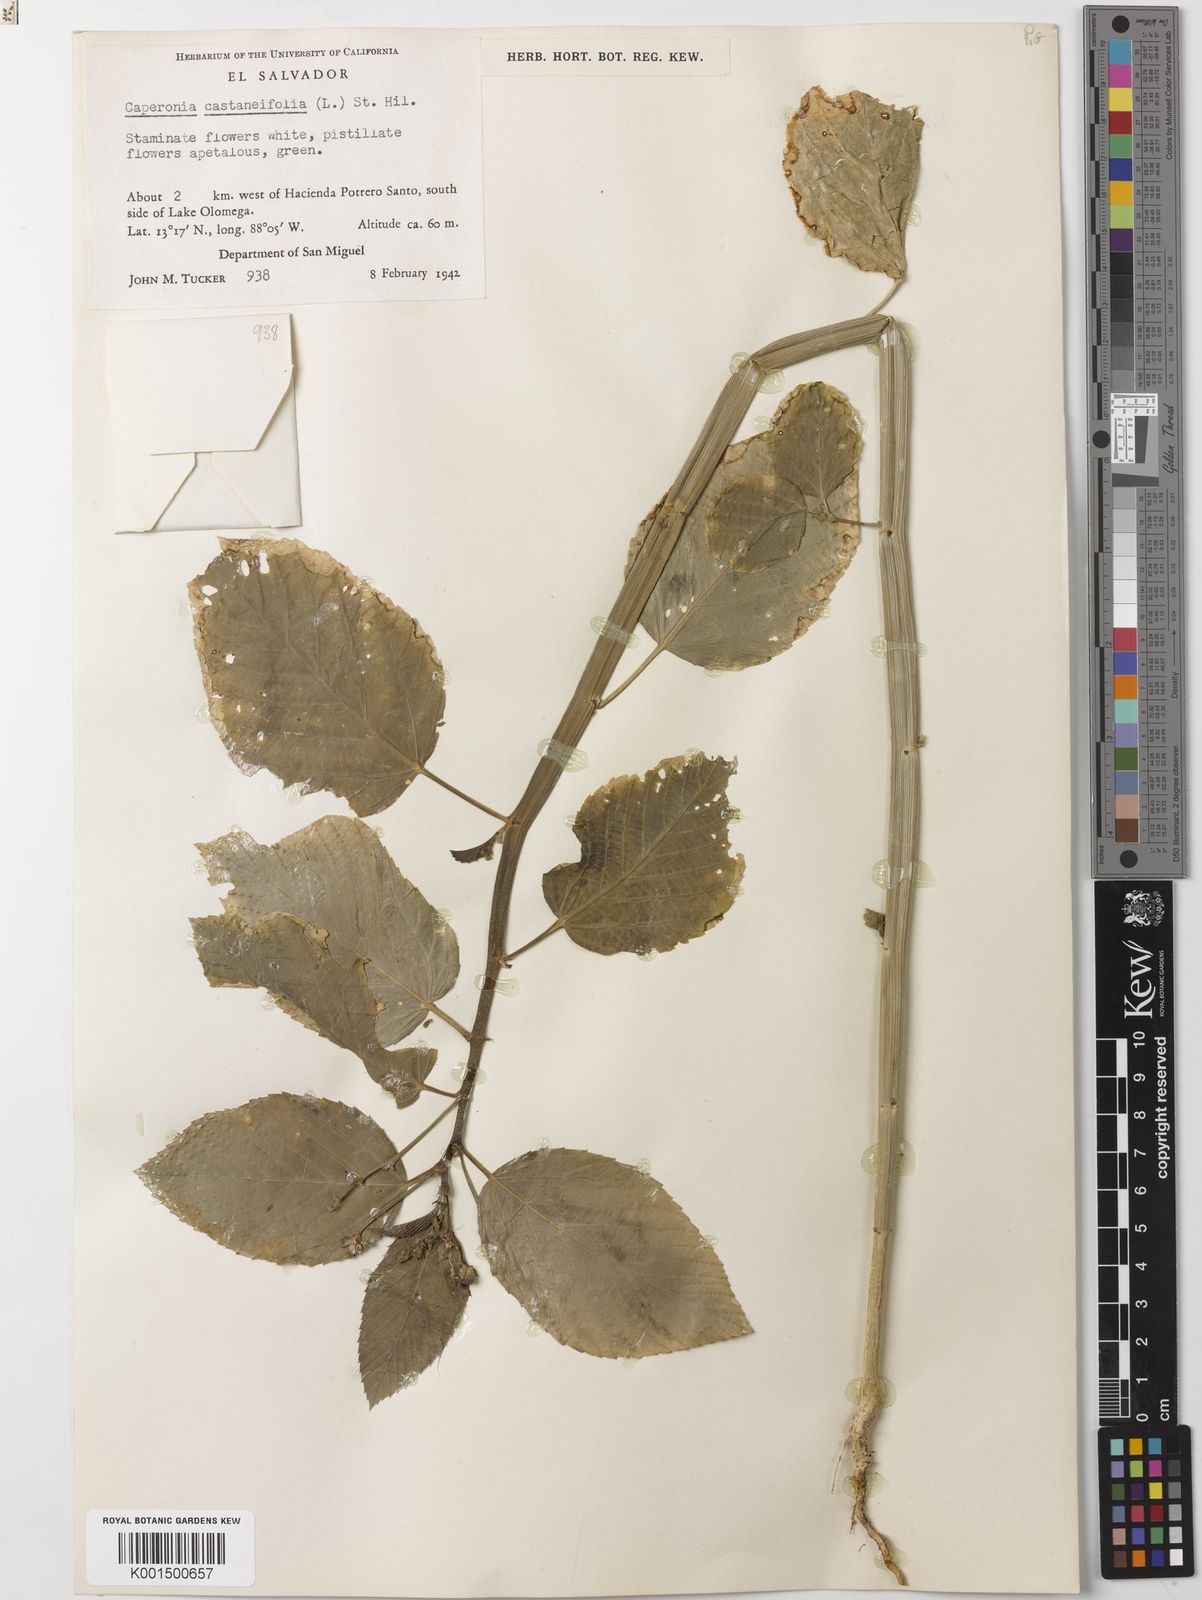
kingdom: Plantae
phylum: Tracheophyta
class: Magnoliopsida
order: Malpighiales
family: Euphorbiaceae
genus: Caperonia
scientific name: Caperonia castaneifolia
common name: Chestnutleaf false croton
